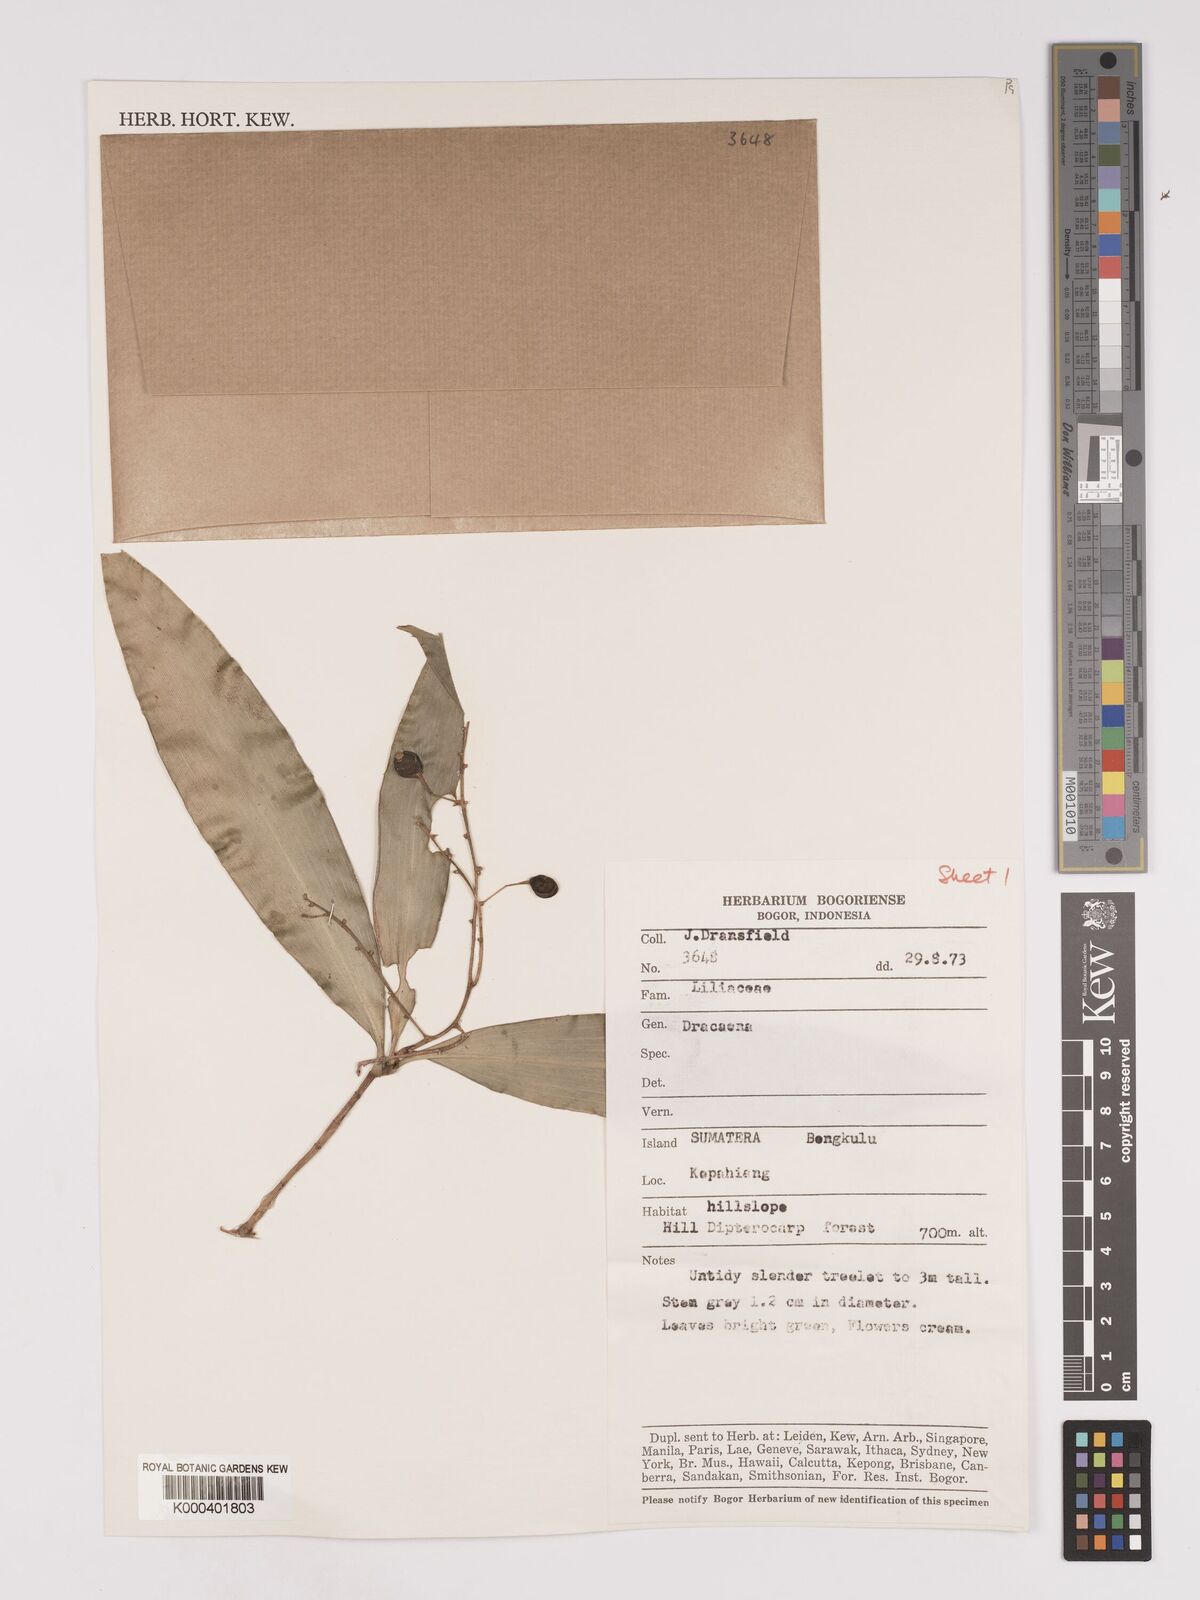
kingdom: Plantae
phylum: Tracheophyta
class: Liliopsida
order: Asparagales
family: Asparagaceae
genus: Dracaena
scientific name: Dracaena
